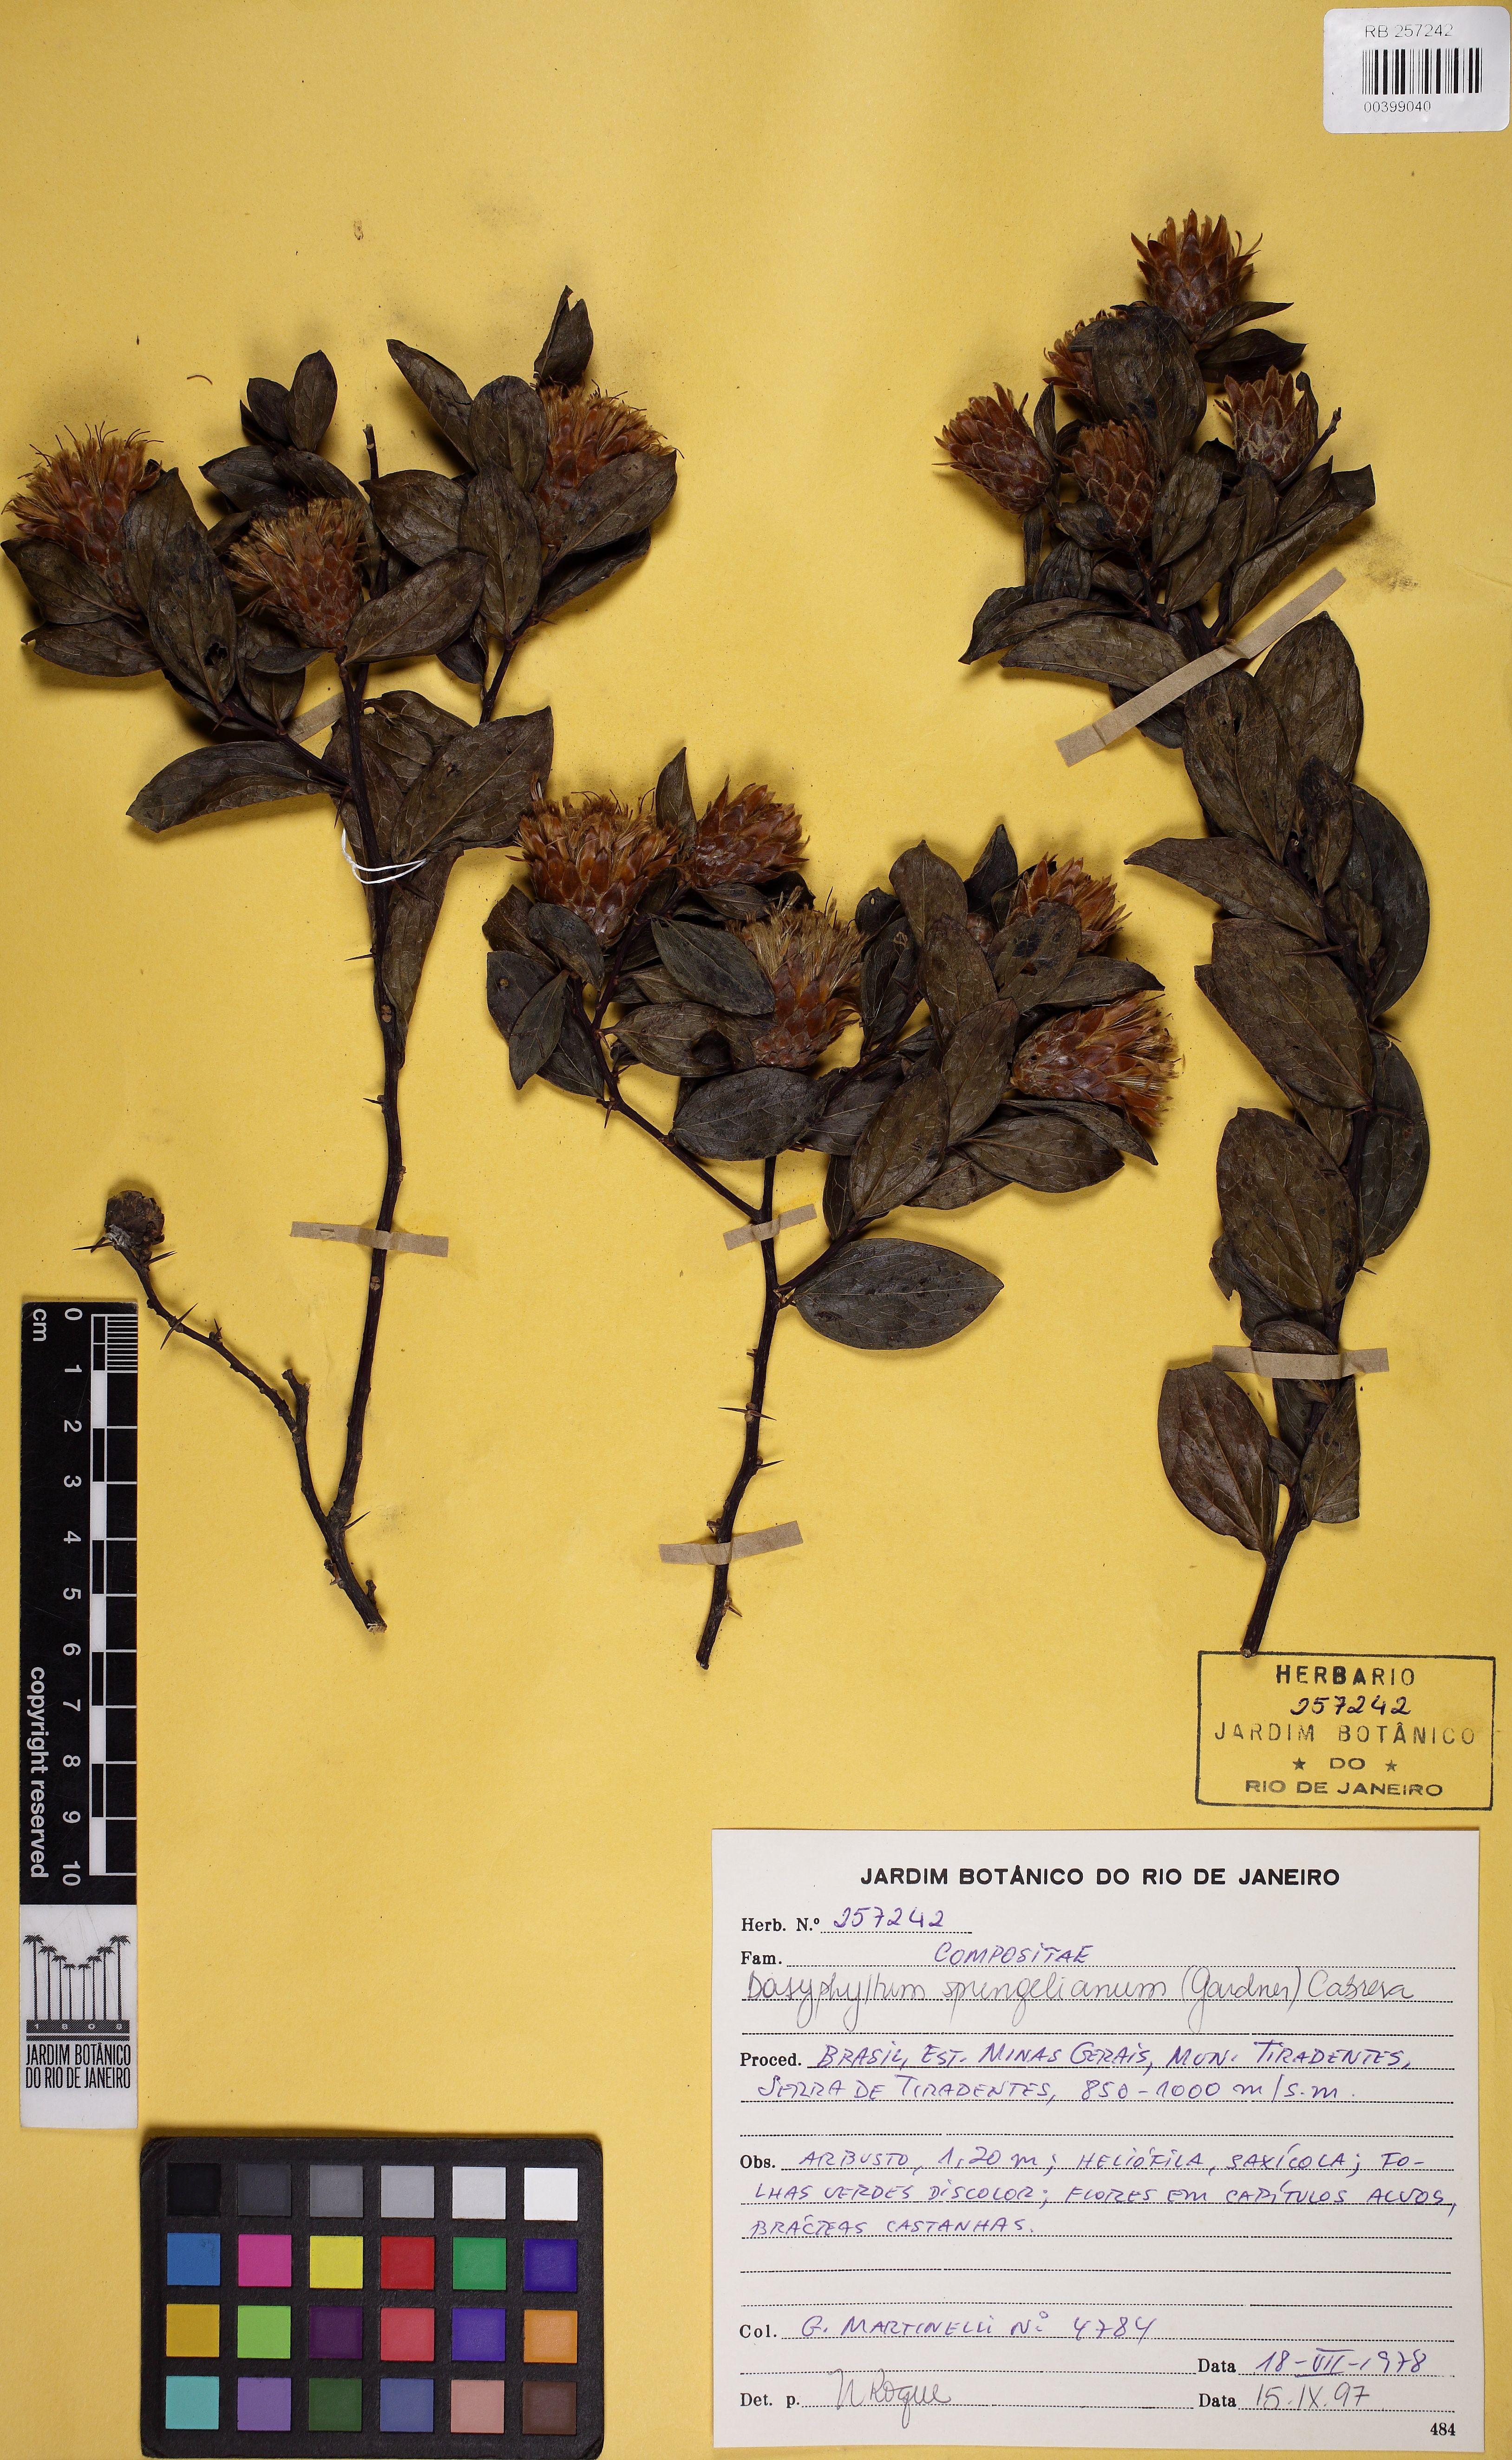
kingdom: Plantae
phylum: Tracheophyta
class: Magnoliopsida
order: Asterales
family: Asteraceae
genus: Dasyphyllum
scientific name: Dasyphyllum sprengelianum
